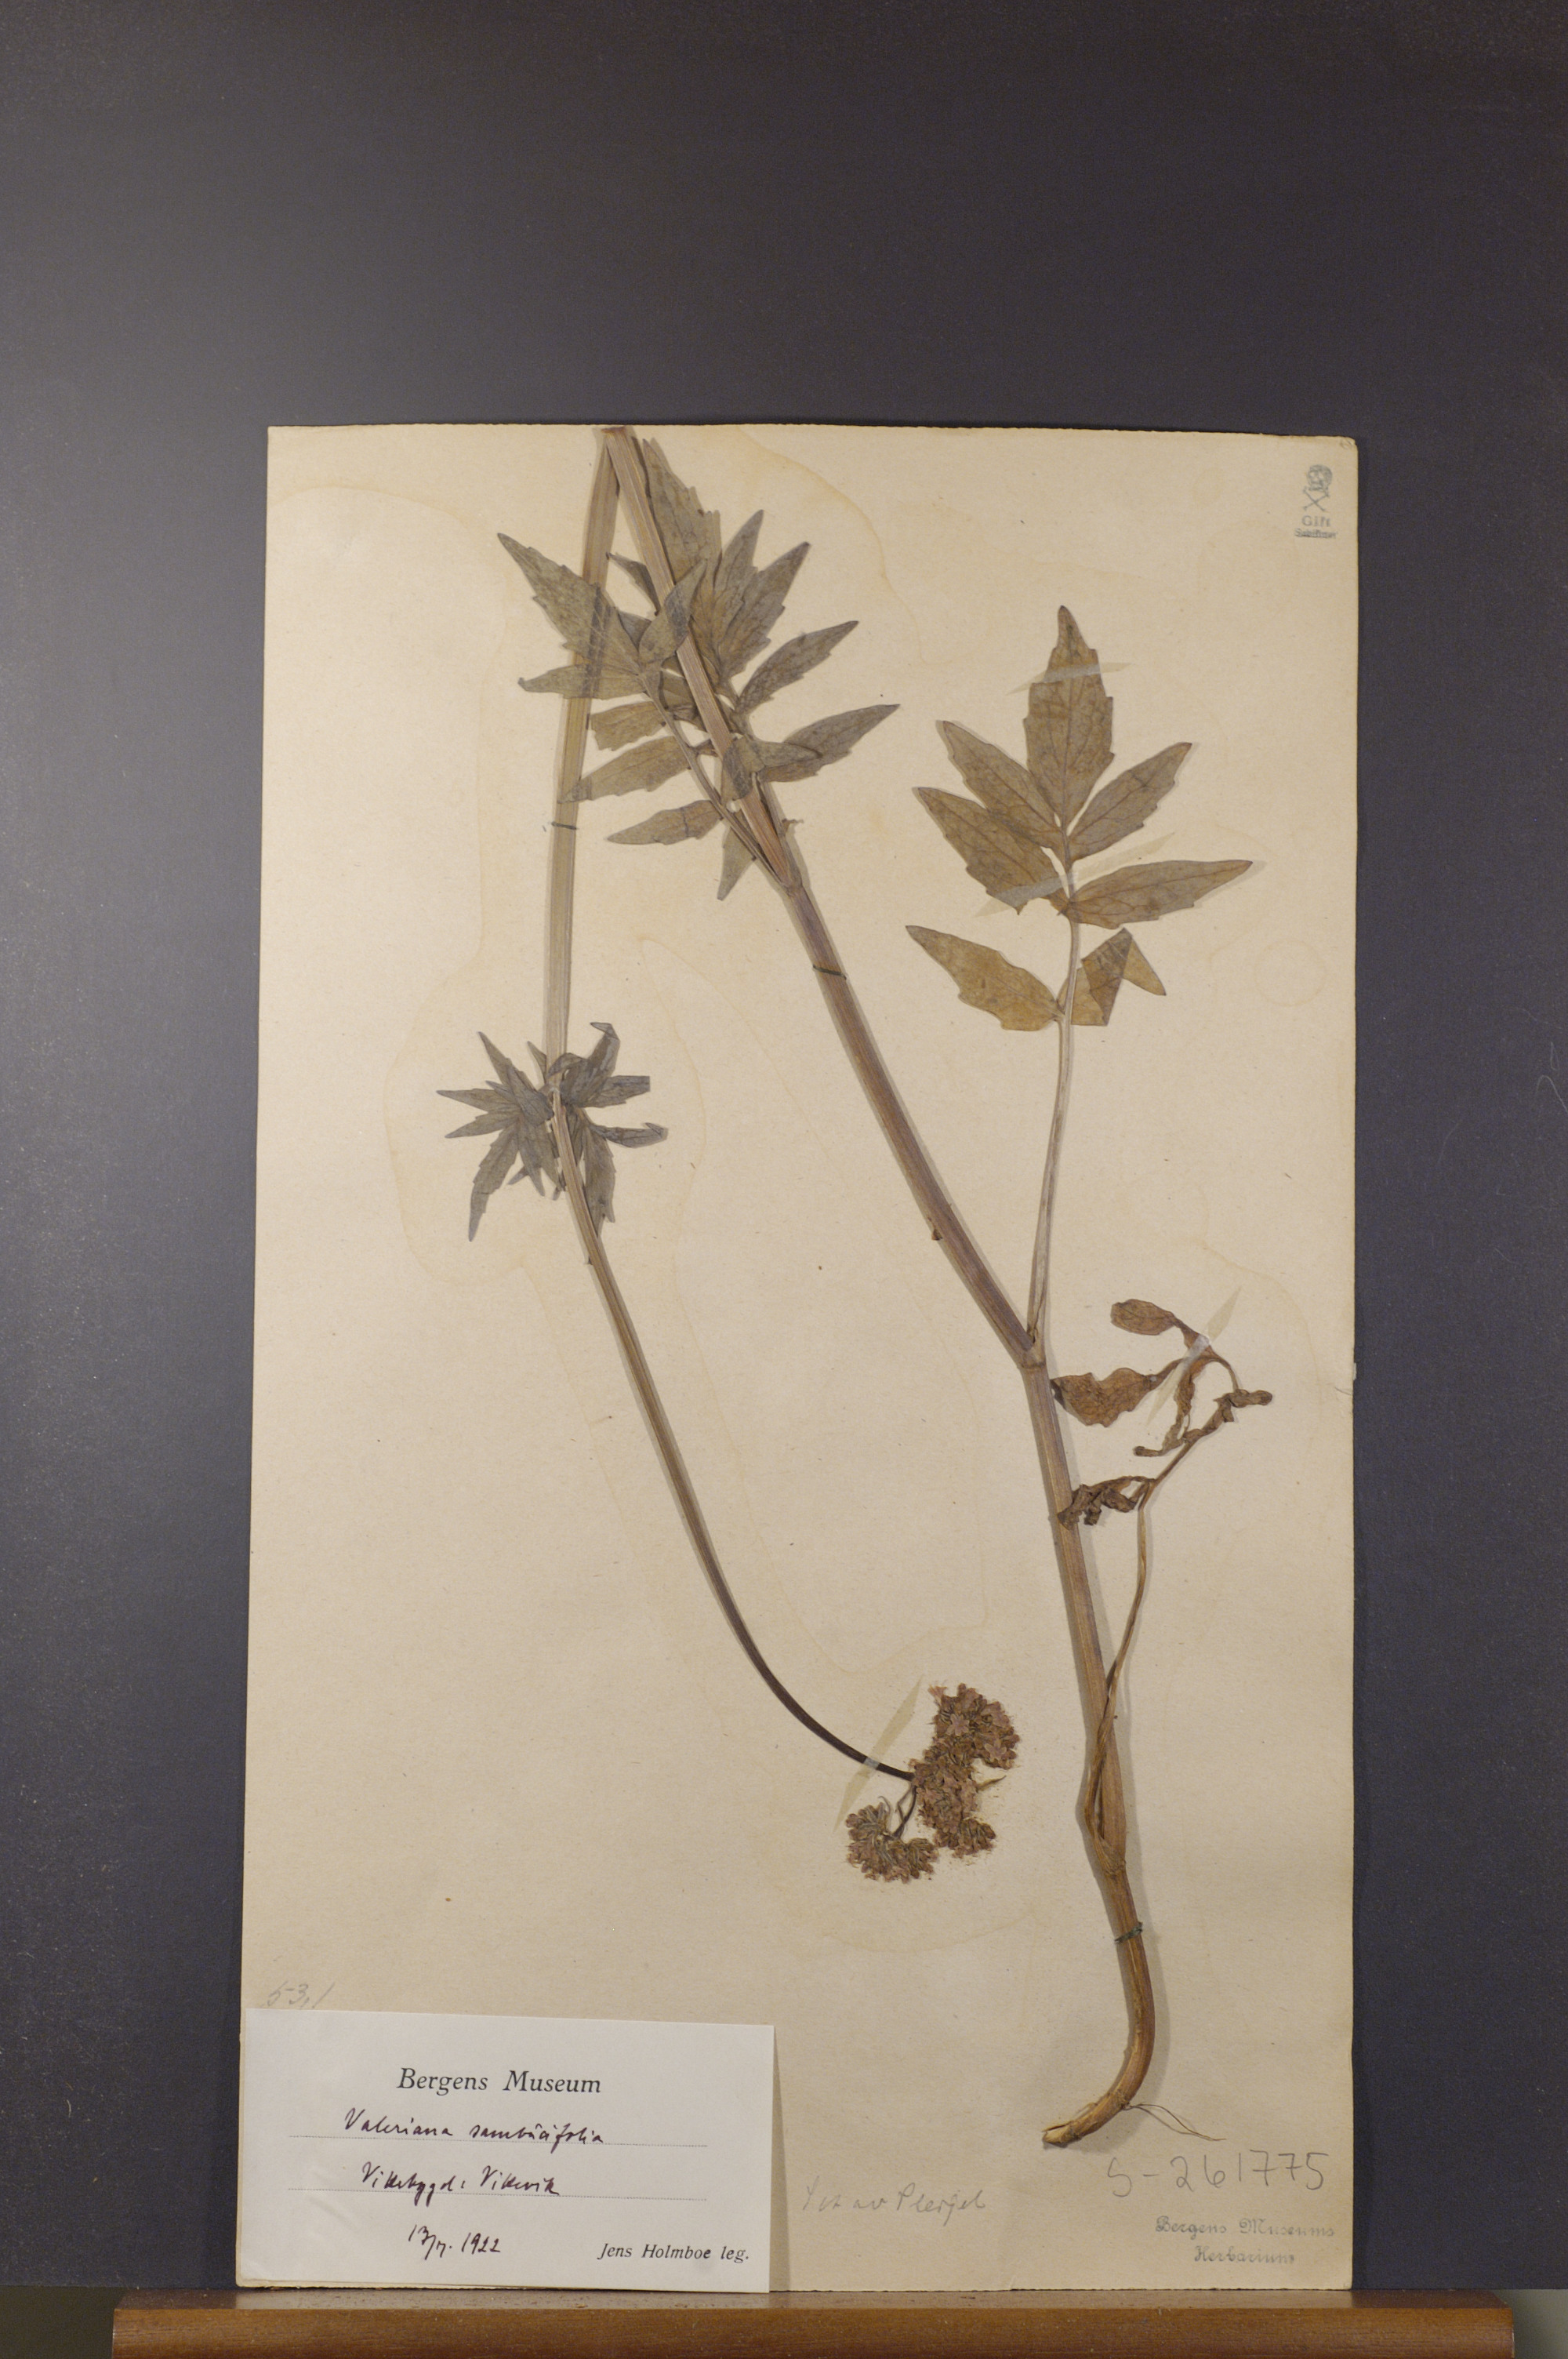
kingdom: Plantae
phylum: Tracheophyta
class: Magnoliopsida
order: Dipsacales
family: Caprifoliaceae
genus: Valeriana
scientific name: Valeriana excelsa
